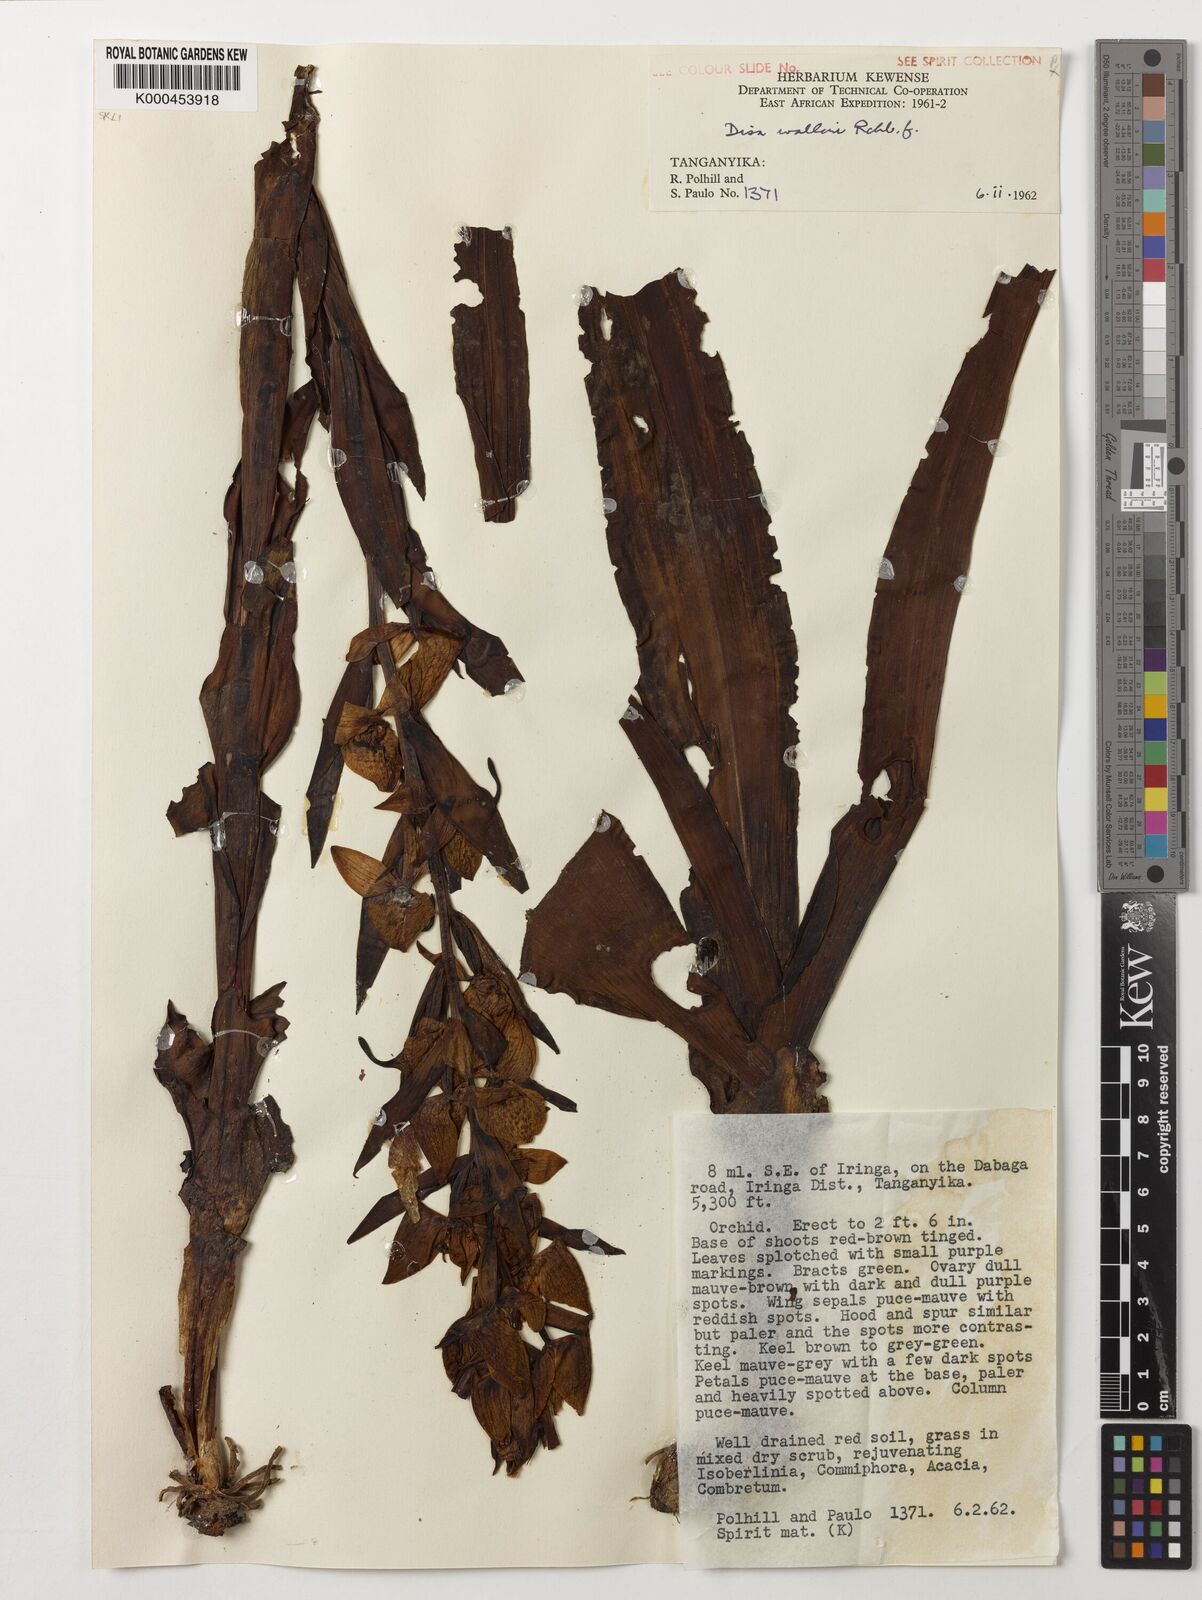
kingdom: Plantae
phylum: Tracheophyta
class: Liliopsida
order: Asparagales
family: Orchidaceae
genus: Disa
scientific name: Disa walleri
